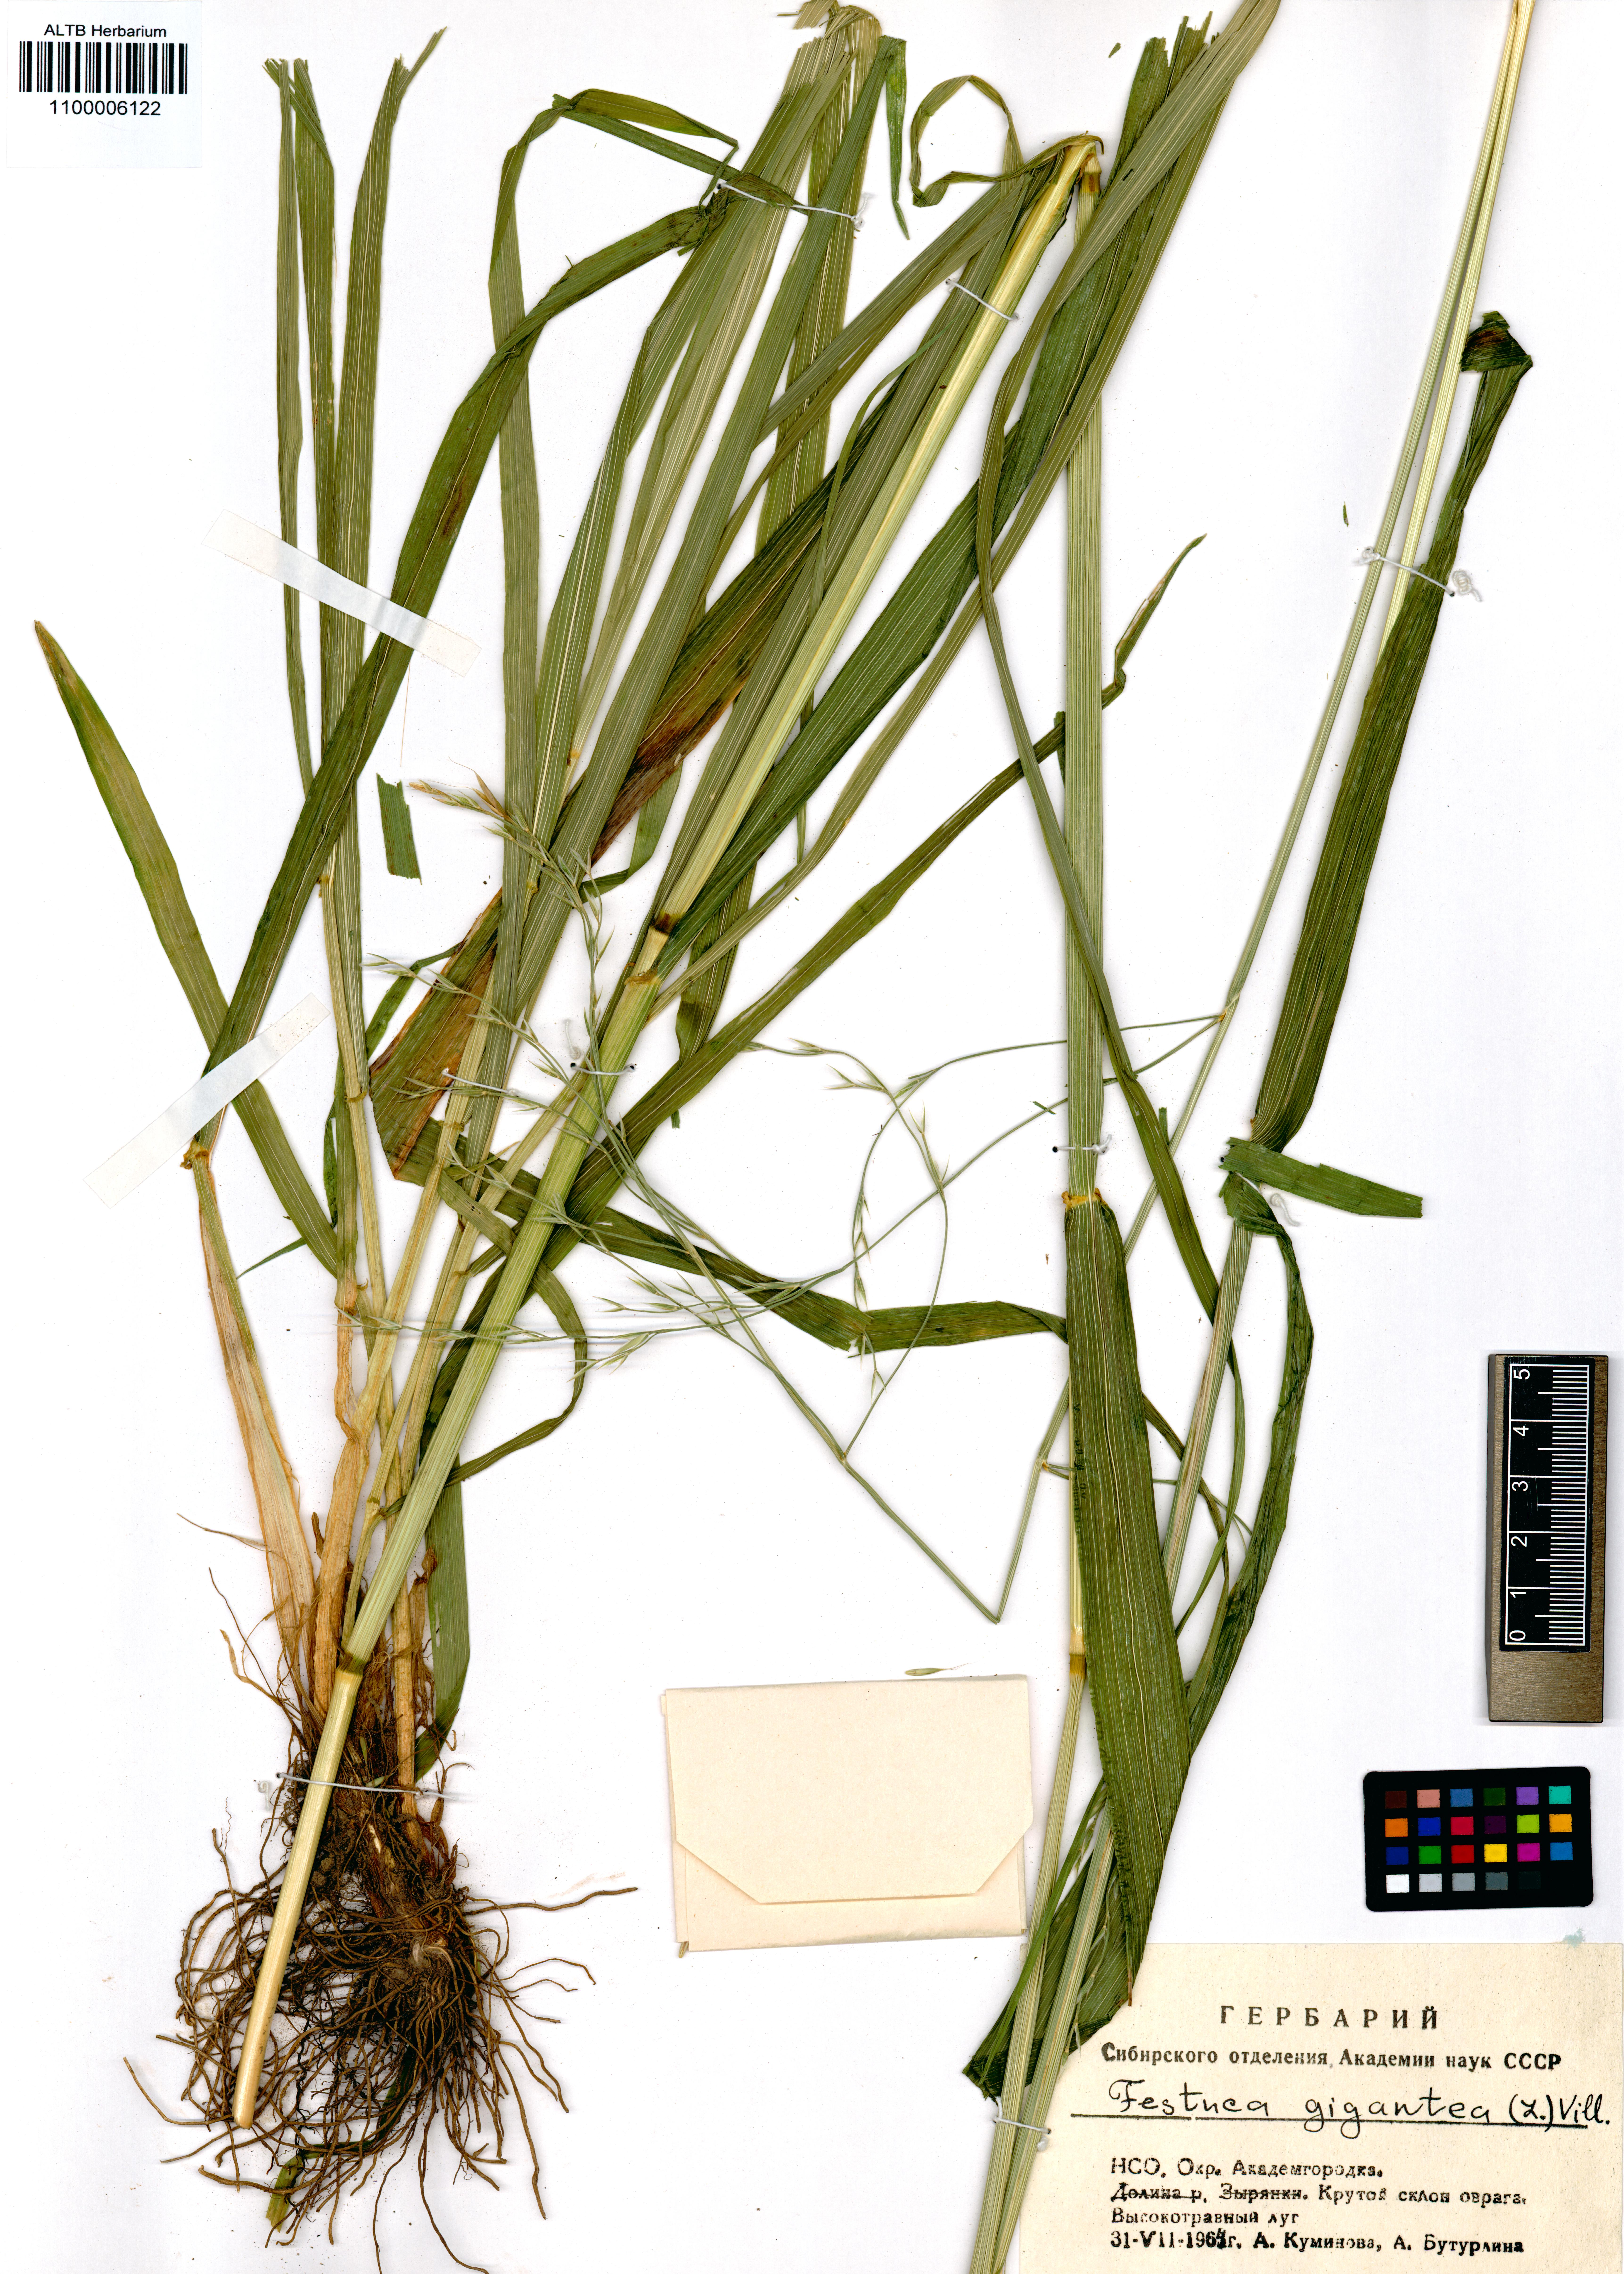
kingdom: Plantae
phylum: Tracheophyta
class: Liliopsida
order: Poales
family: Poaceae
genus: Lolium
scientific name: Lolium giganteum
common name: Giant fescue
